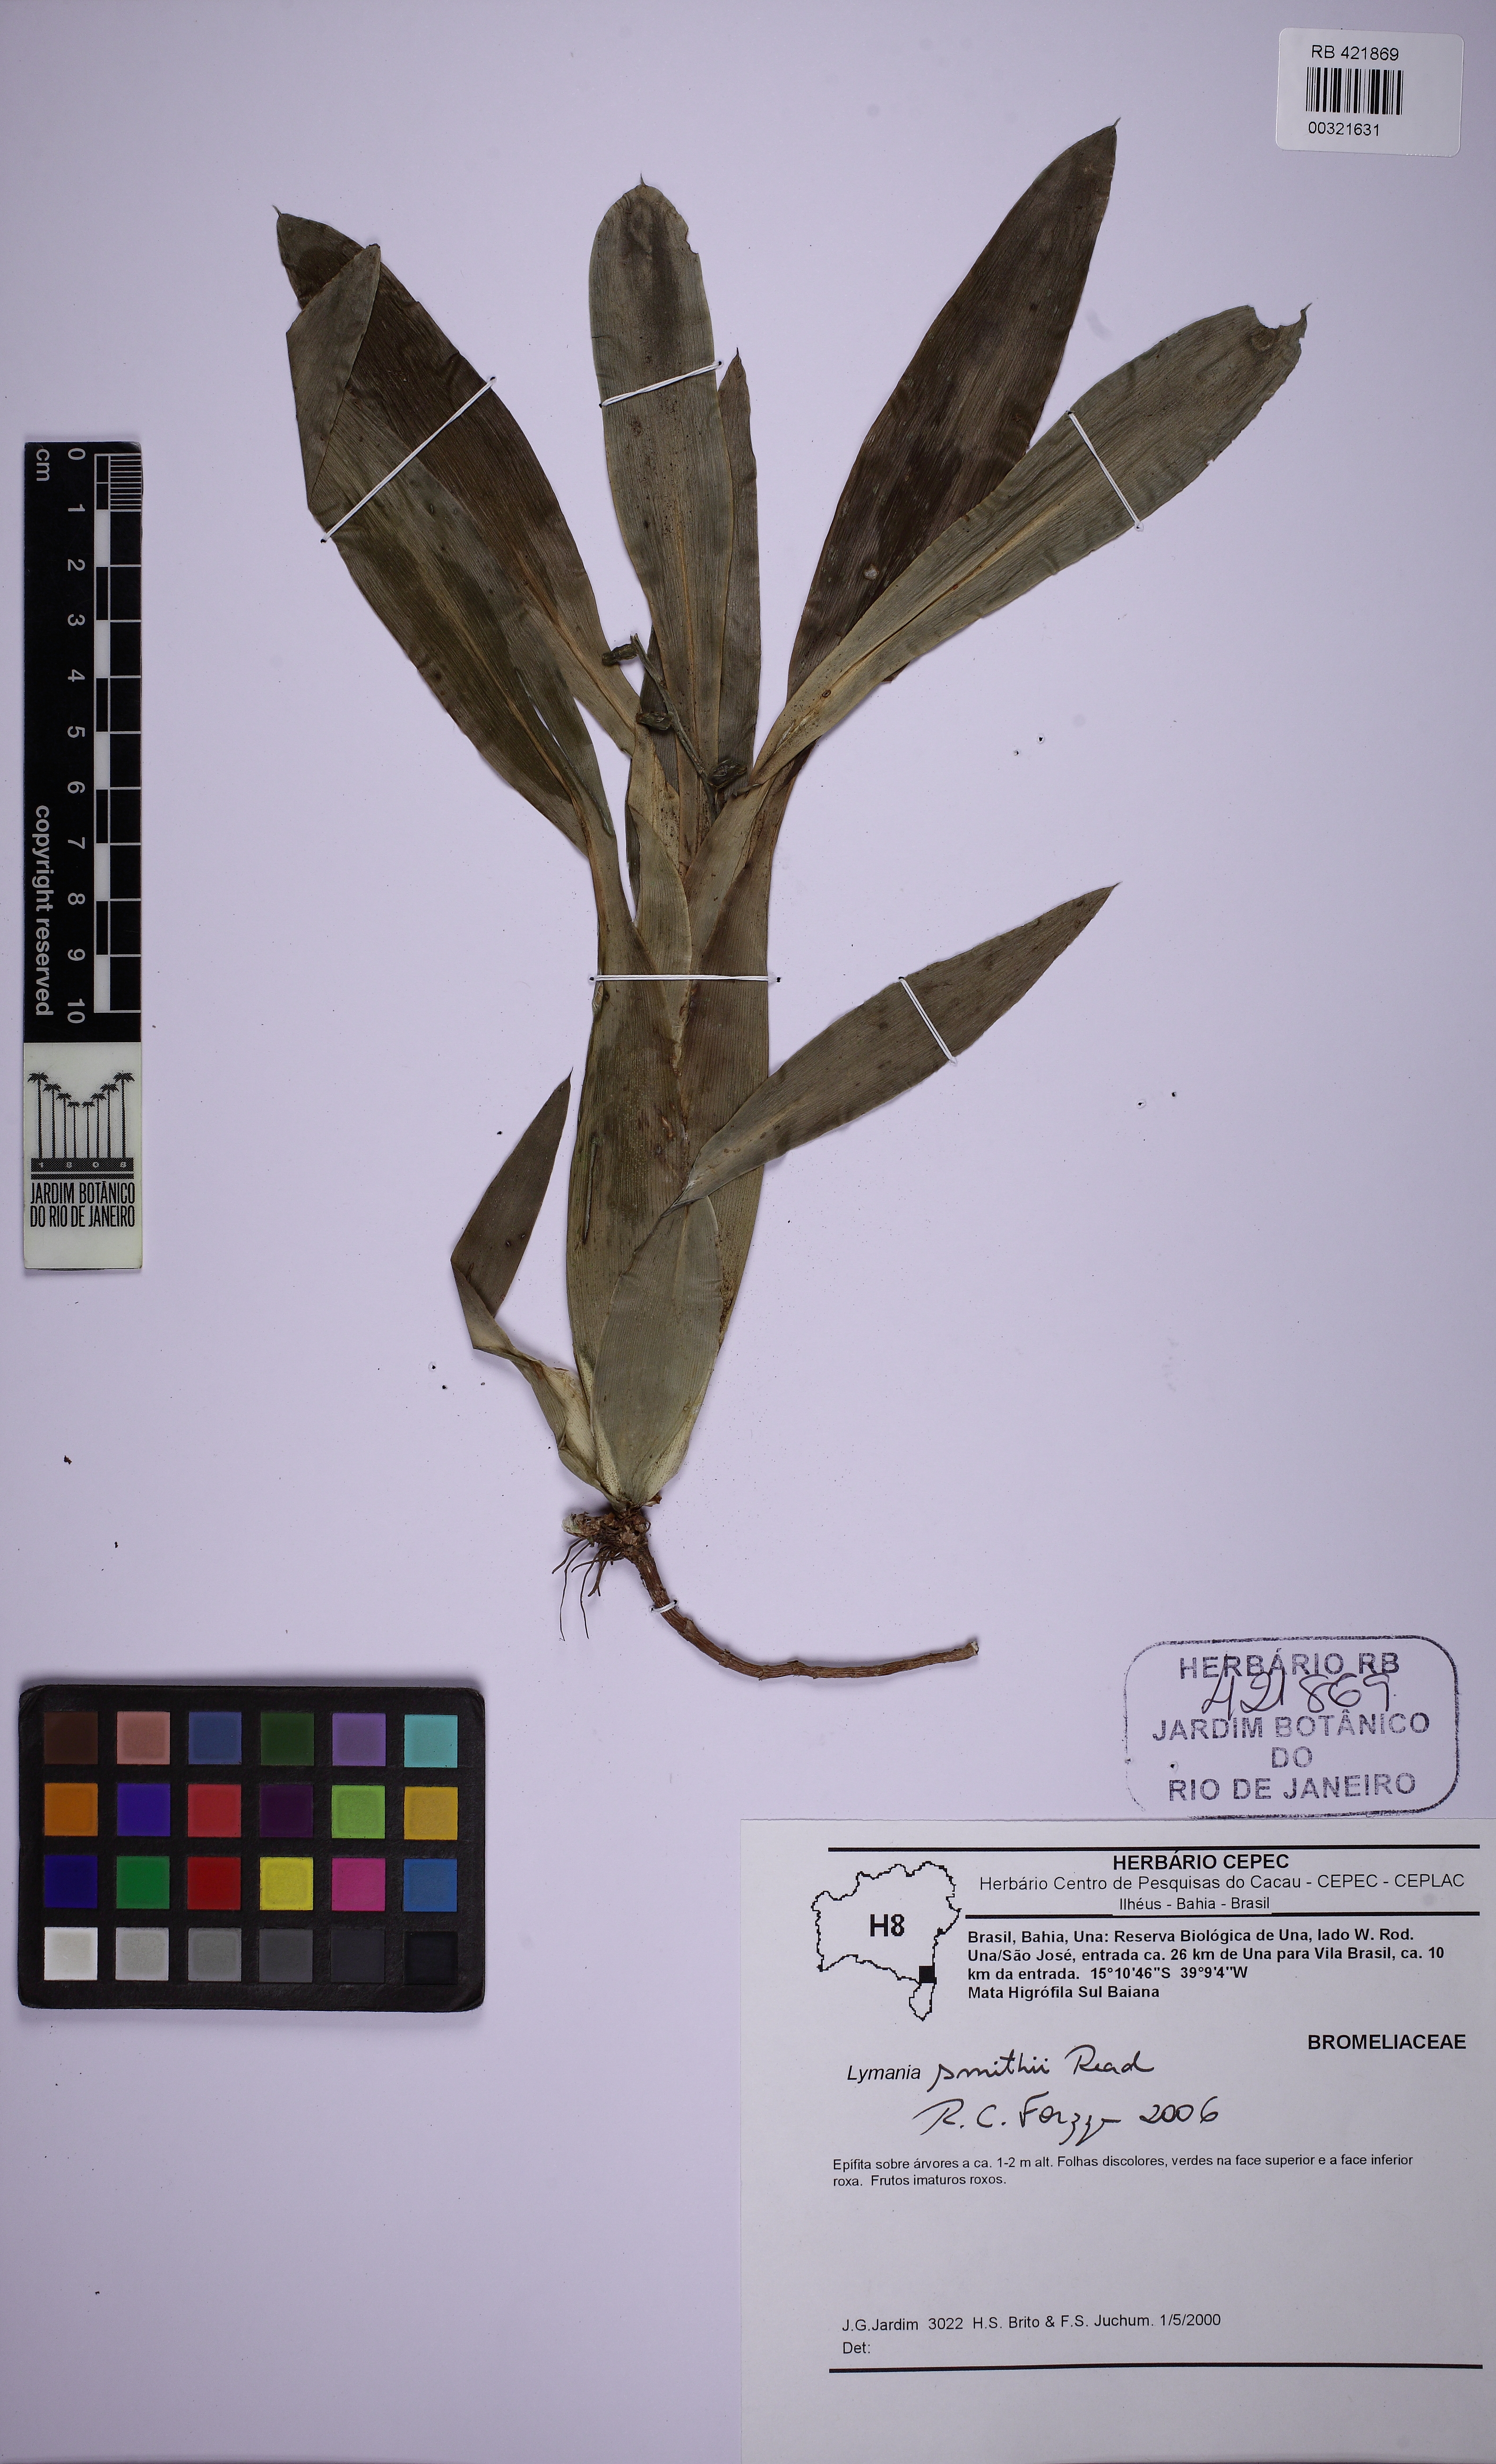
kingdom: Plantae
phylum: Tracheophyta
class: Liliopsida
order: Poales
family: Bromeliaceae
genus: Lymania
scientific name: Lymania smithii
